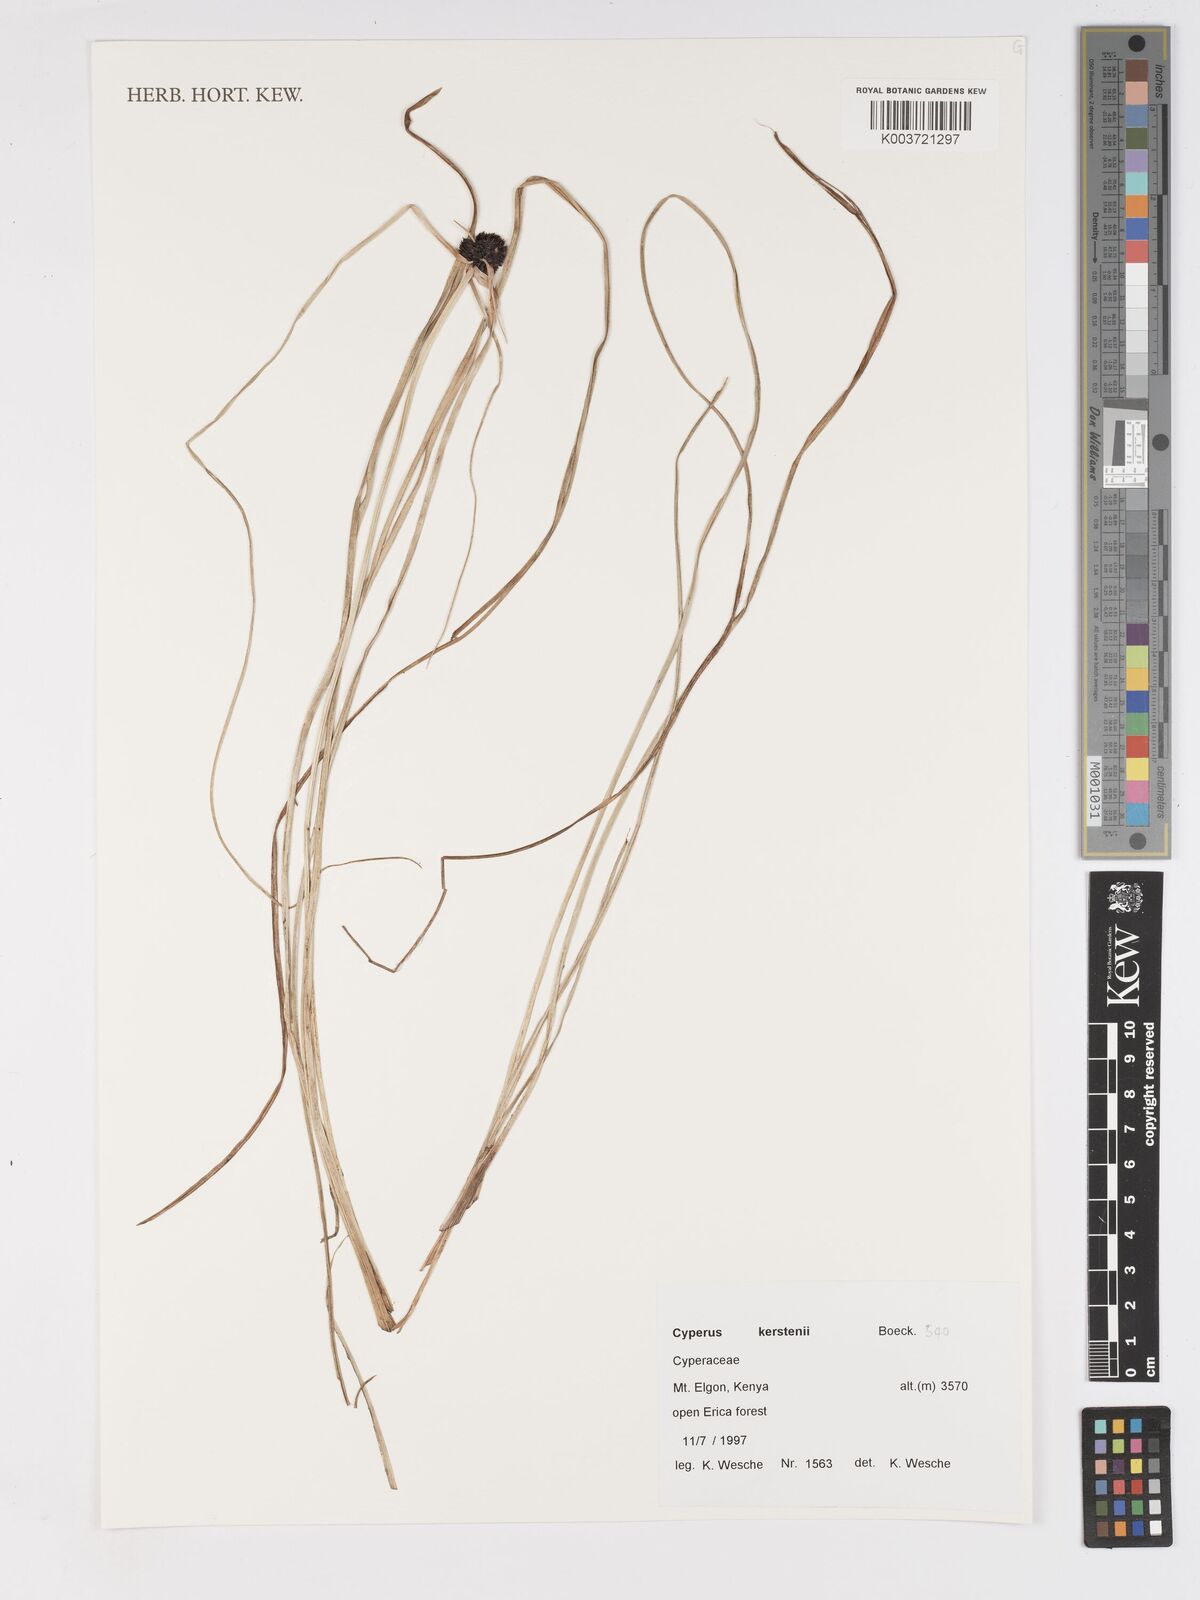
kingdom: Plantae
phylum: Tracheophyta
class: Liliopsida
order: Poales
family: Cyperaceae
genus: Cyperus
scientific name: Cyperus kerstenii
